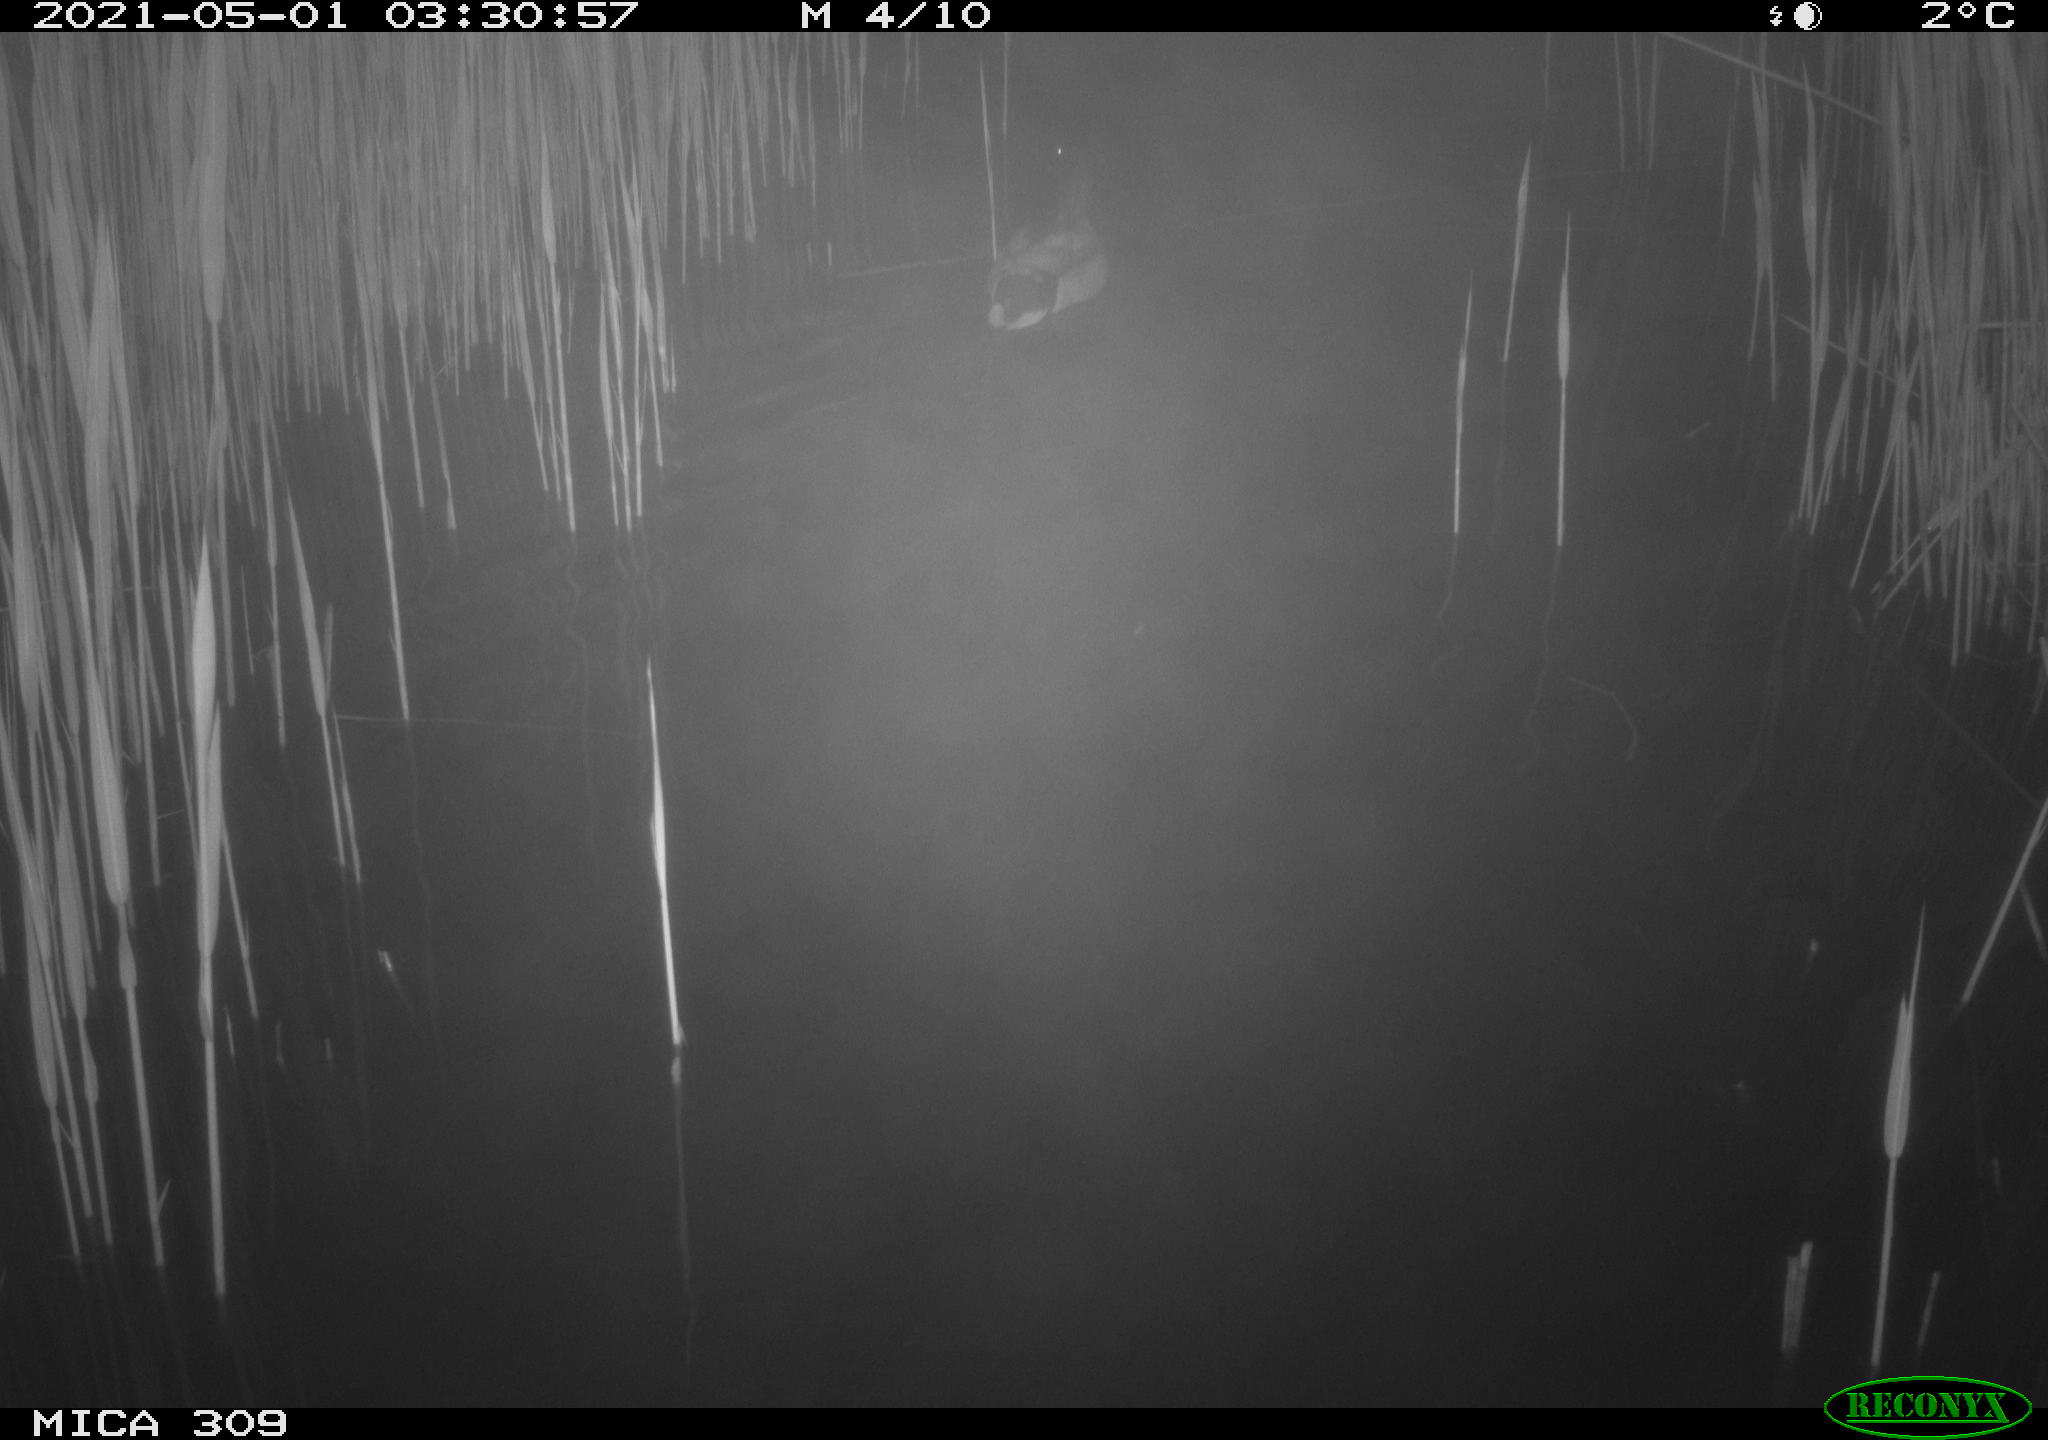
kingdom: Animalia
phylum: Chordata
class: Aves
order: Anseriformes
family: Anatidae
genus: Anas
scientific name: Anas platyrhynchos
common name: Mallard
